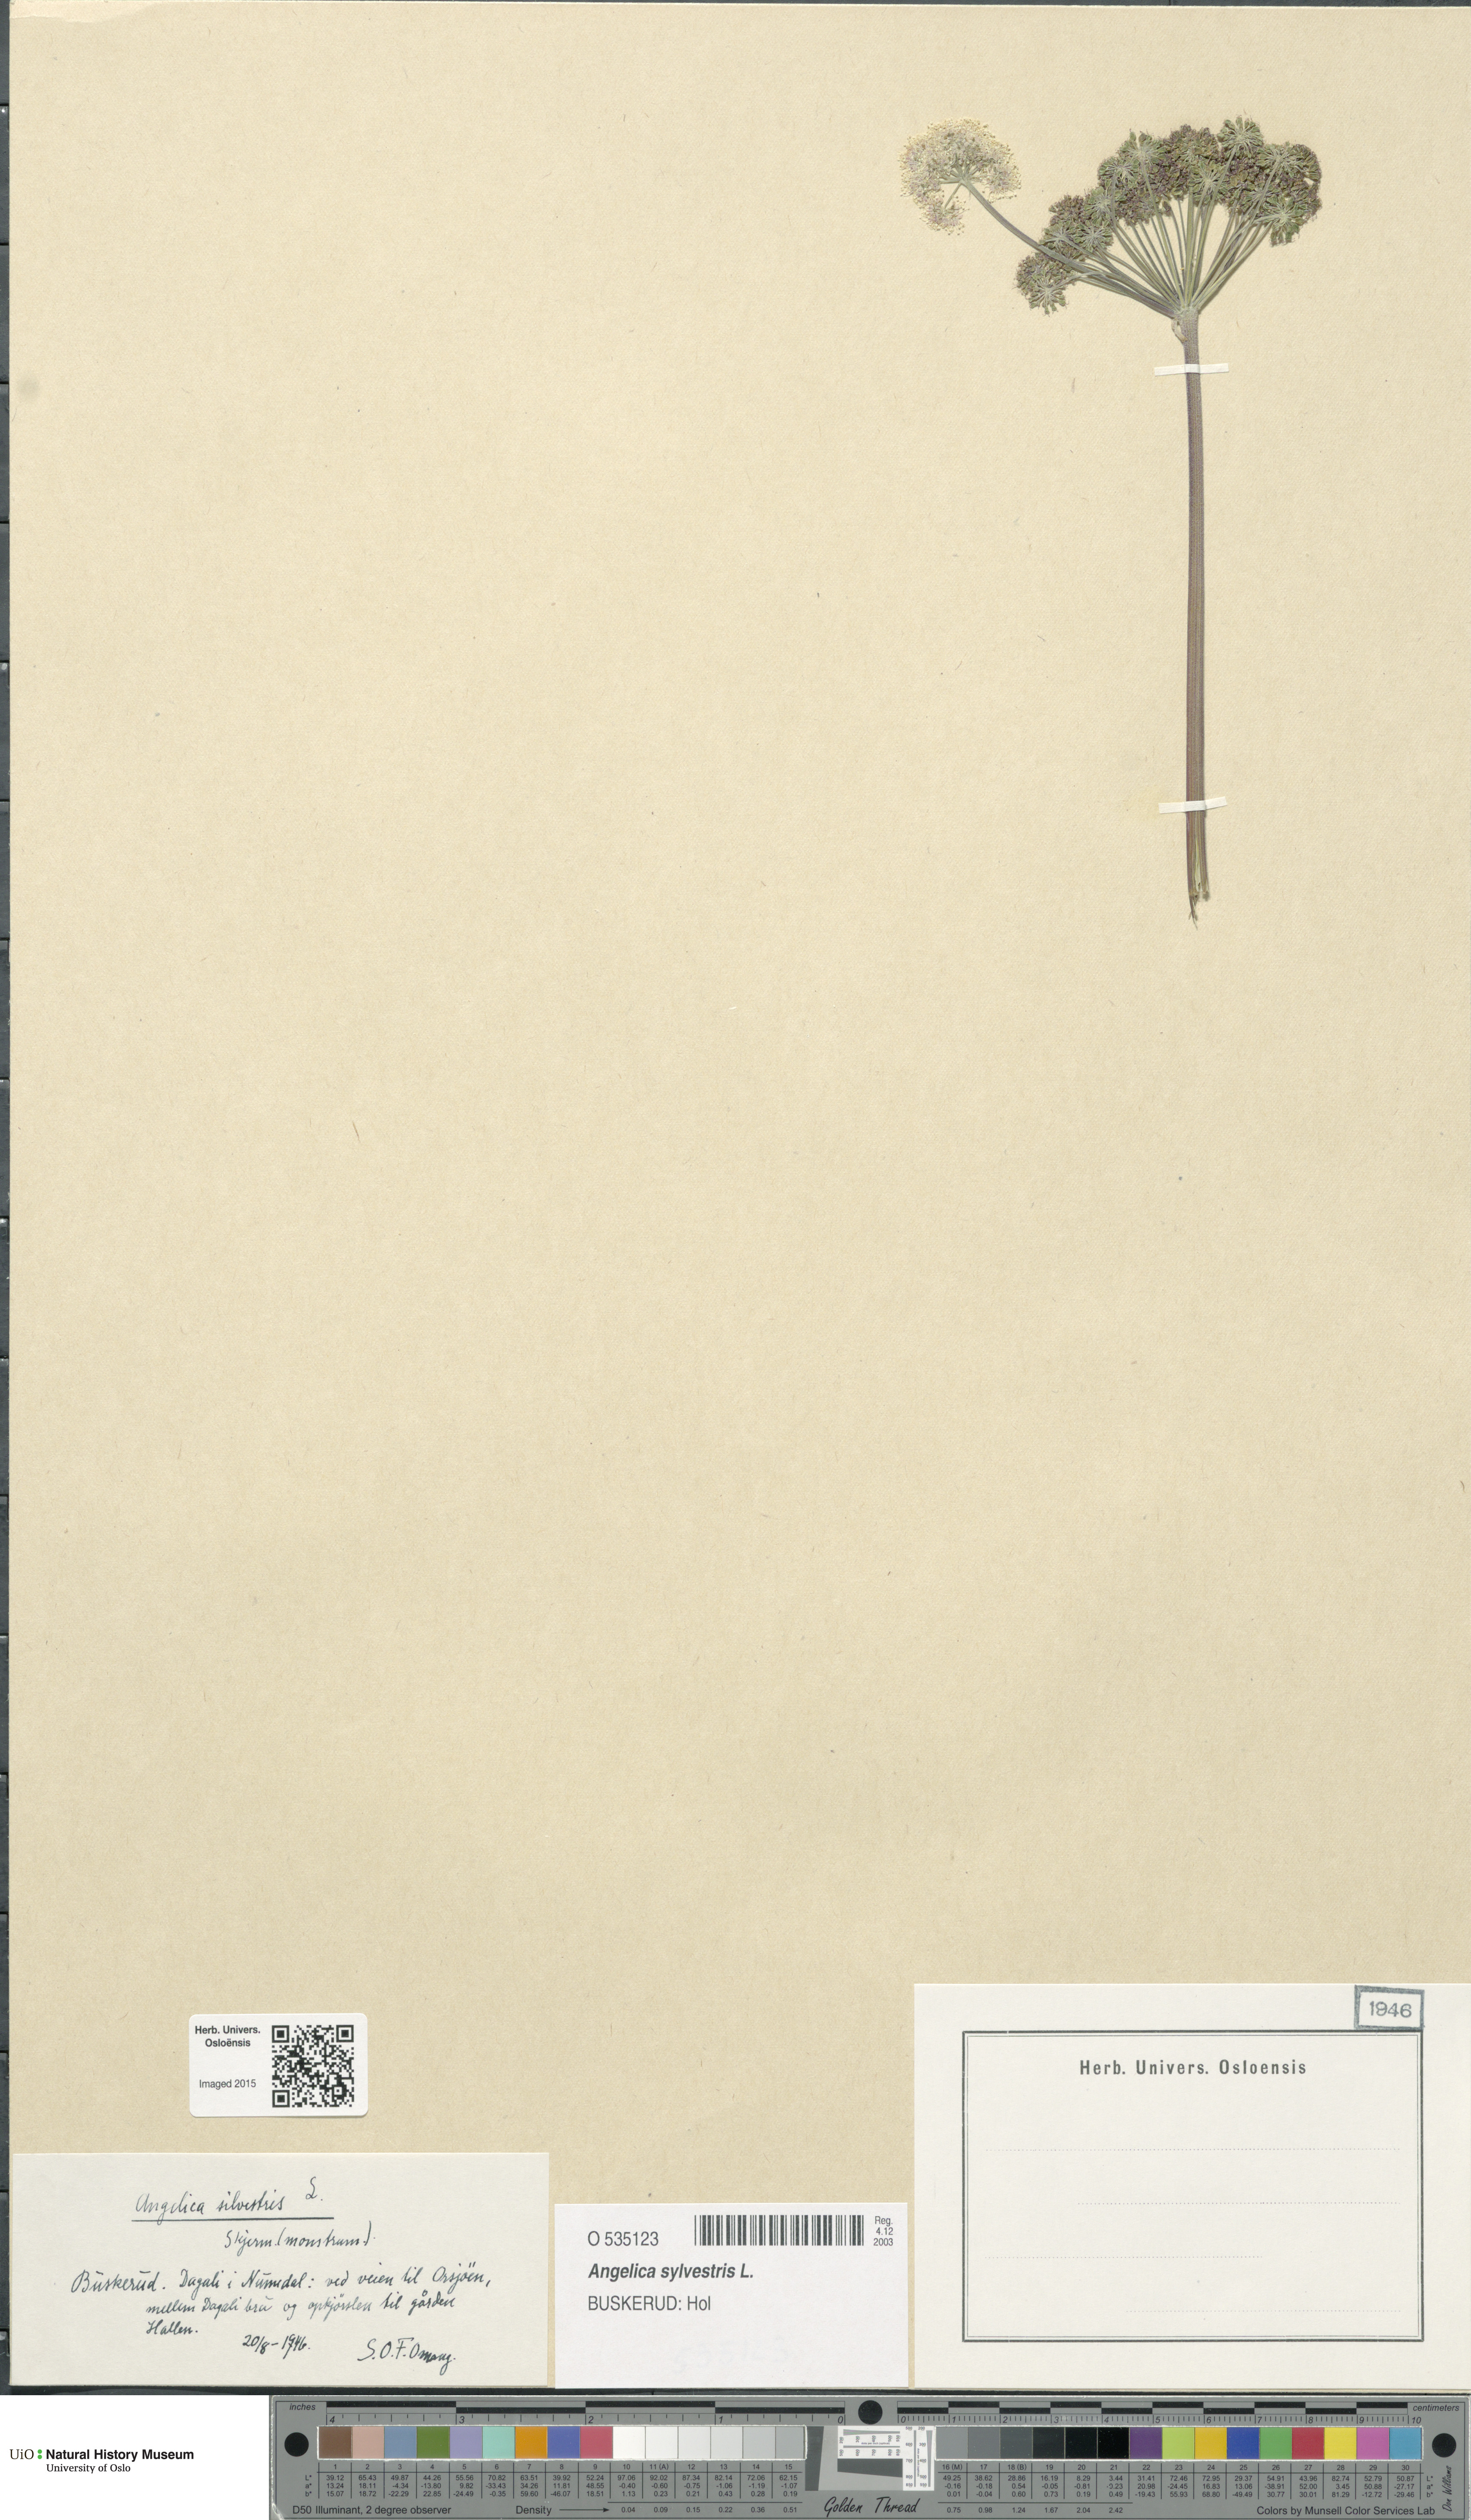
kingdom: Plantae
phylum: Tracheophyta
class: Magnoliopsida
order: Apiales
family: Apiaceae
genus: Angelica
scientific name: Angelica sylvestris
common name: Wild angelica
